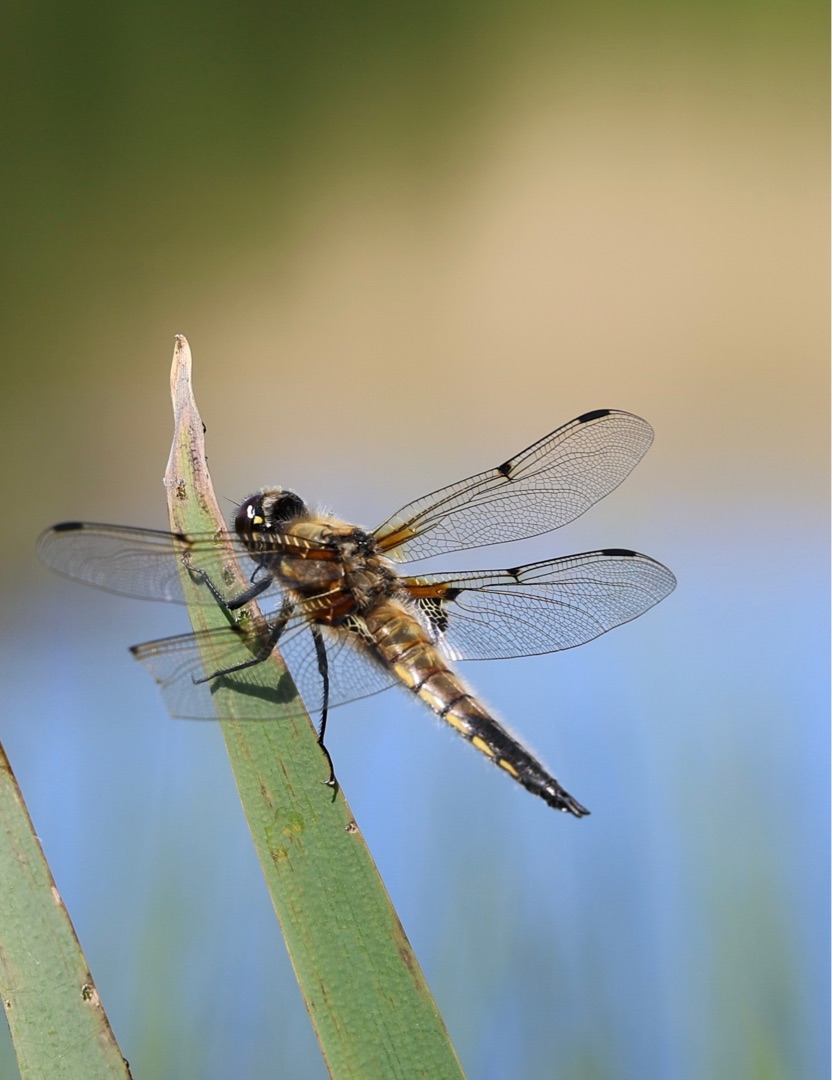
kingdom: Animalia
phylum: Arthropoda
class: Insecta
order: Odonata
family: Libellulidae
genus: Libellula
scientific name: Libellula quadrimaculata
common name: Fireplettet libel
